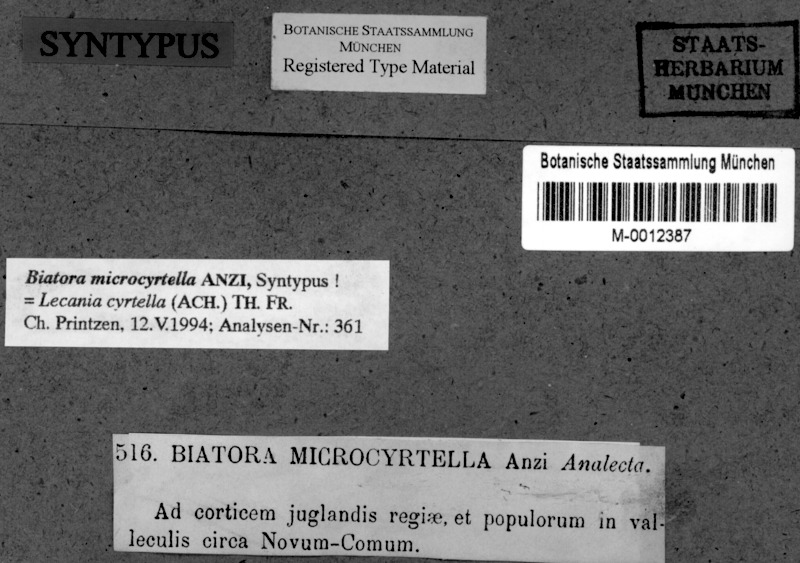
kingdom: Fungi
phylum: Ascomycota
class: Lecanoromycetes
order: Lecanorales
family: Ramalinaceae
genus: Lecania
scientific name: Lecania cyrtella
